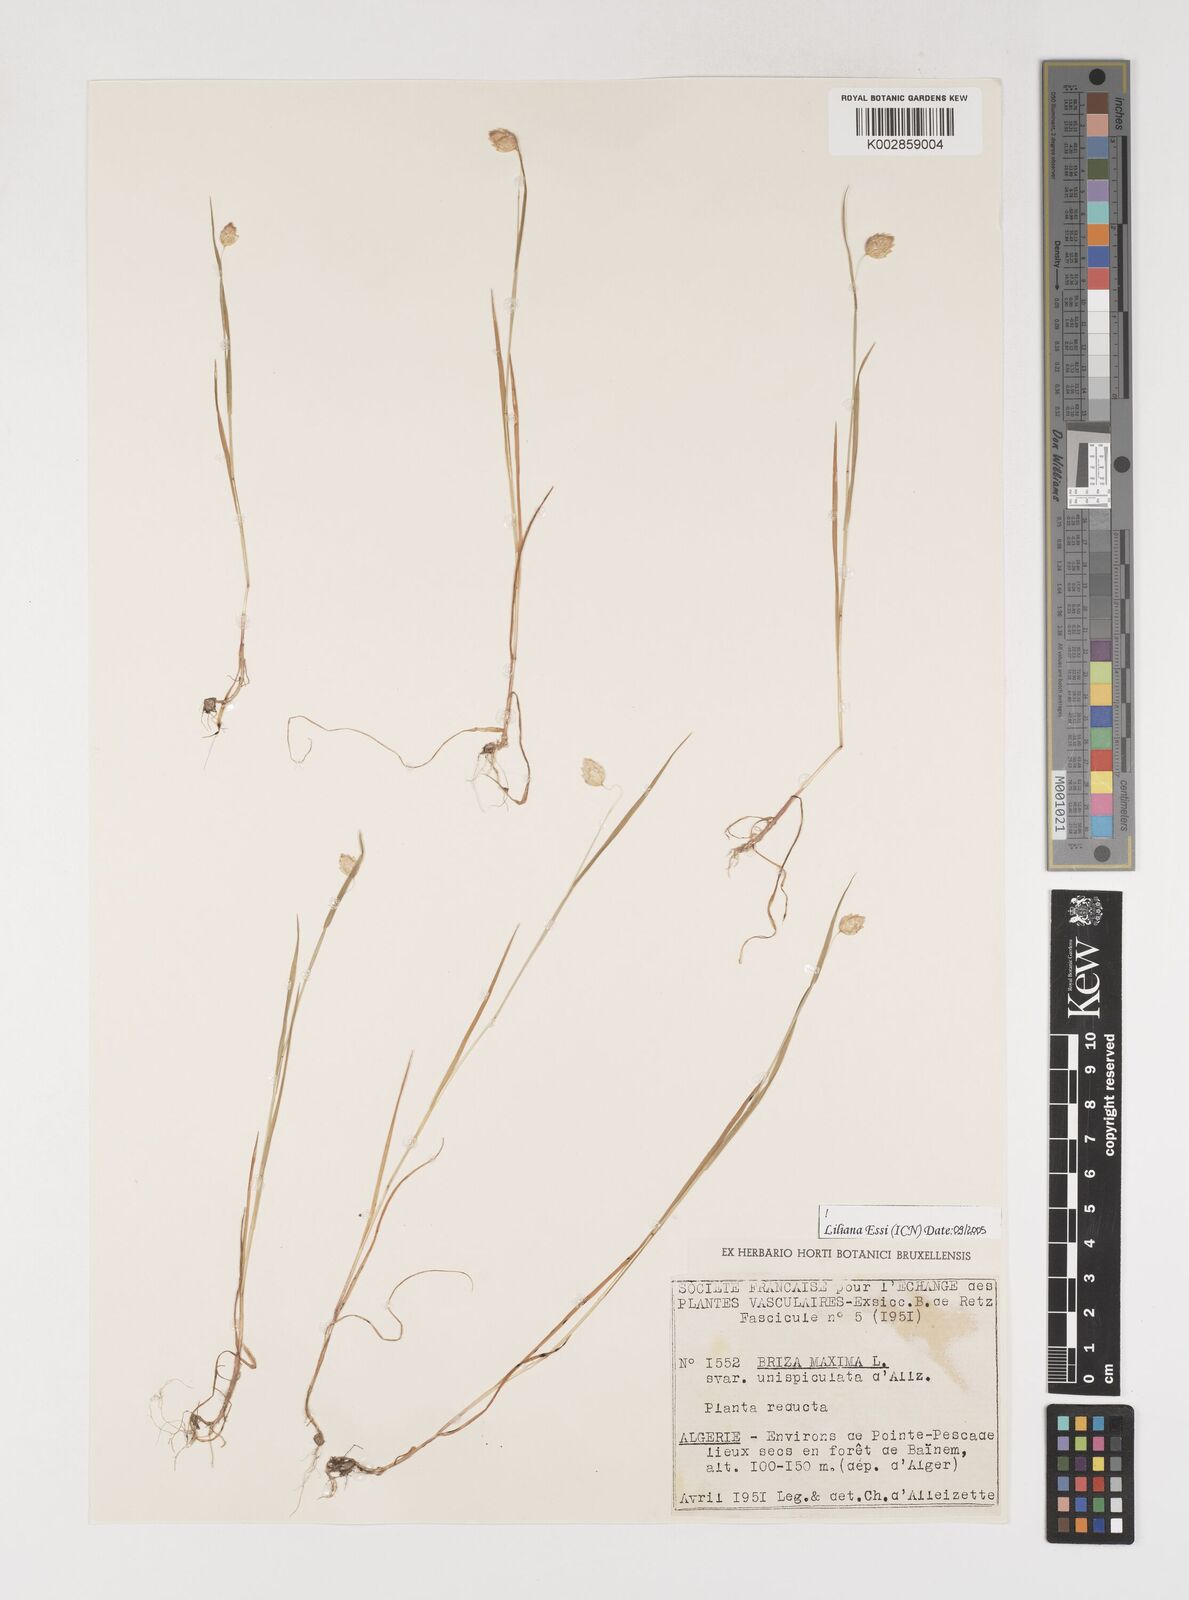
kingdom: Plantae
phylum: Tracheophyta
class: Liliopsida
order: Poales
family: Poaceae
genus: Briza
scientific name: Briza maxima
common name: Big quakinggrass
